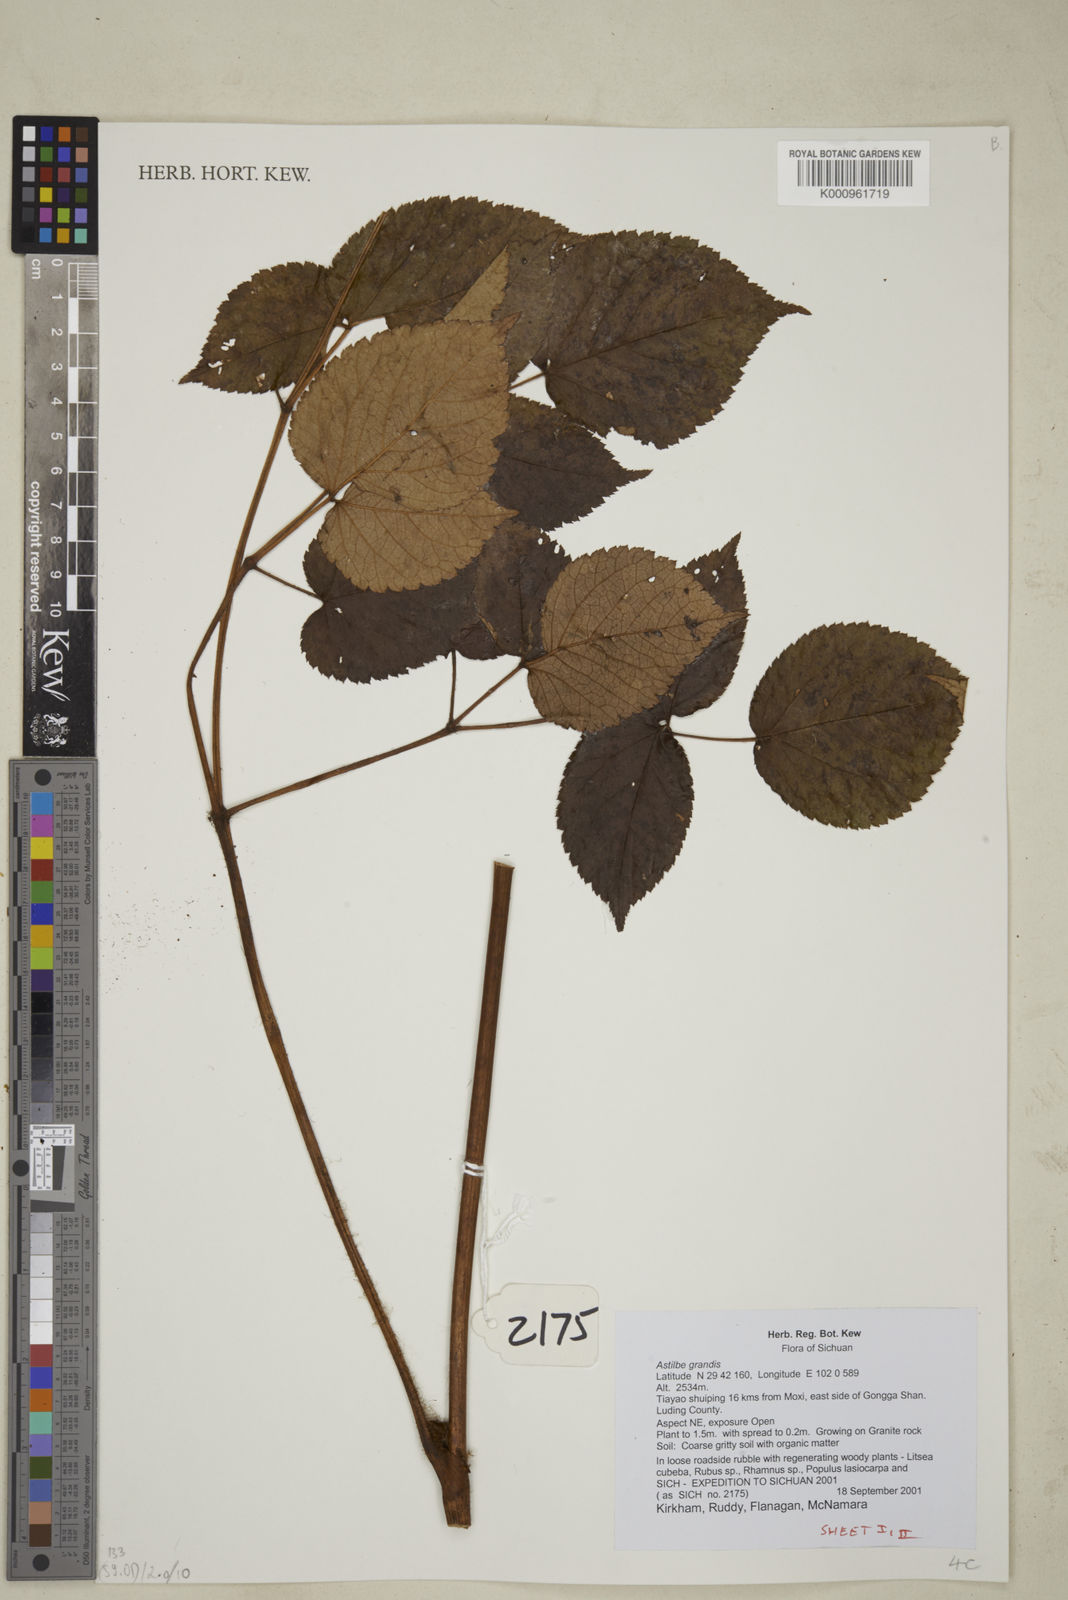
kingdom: Plantae
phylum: Tracheophyta
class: Magnoliopsida
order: Saxifragales
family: Saxifragaceae
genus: Astilbe
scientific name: Astilbe grandis
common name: Korean astilbe
